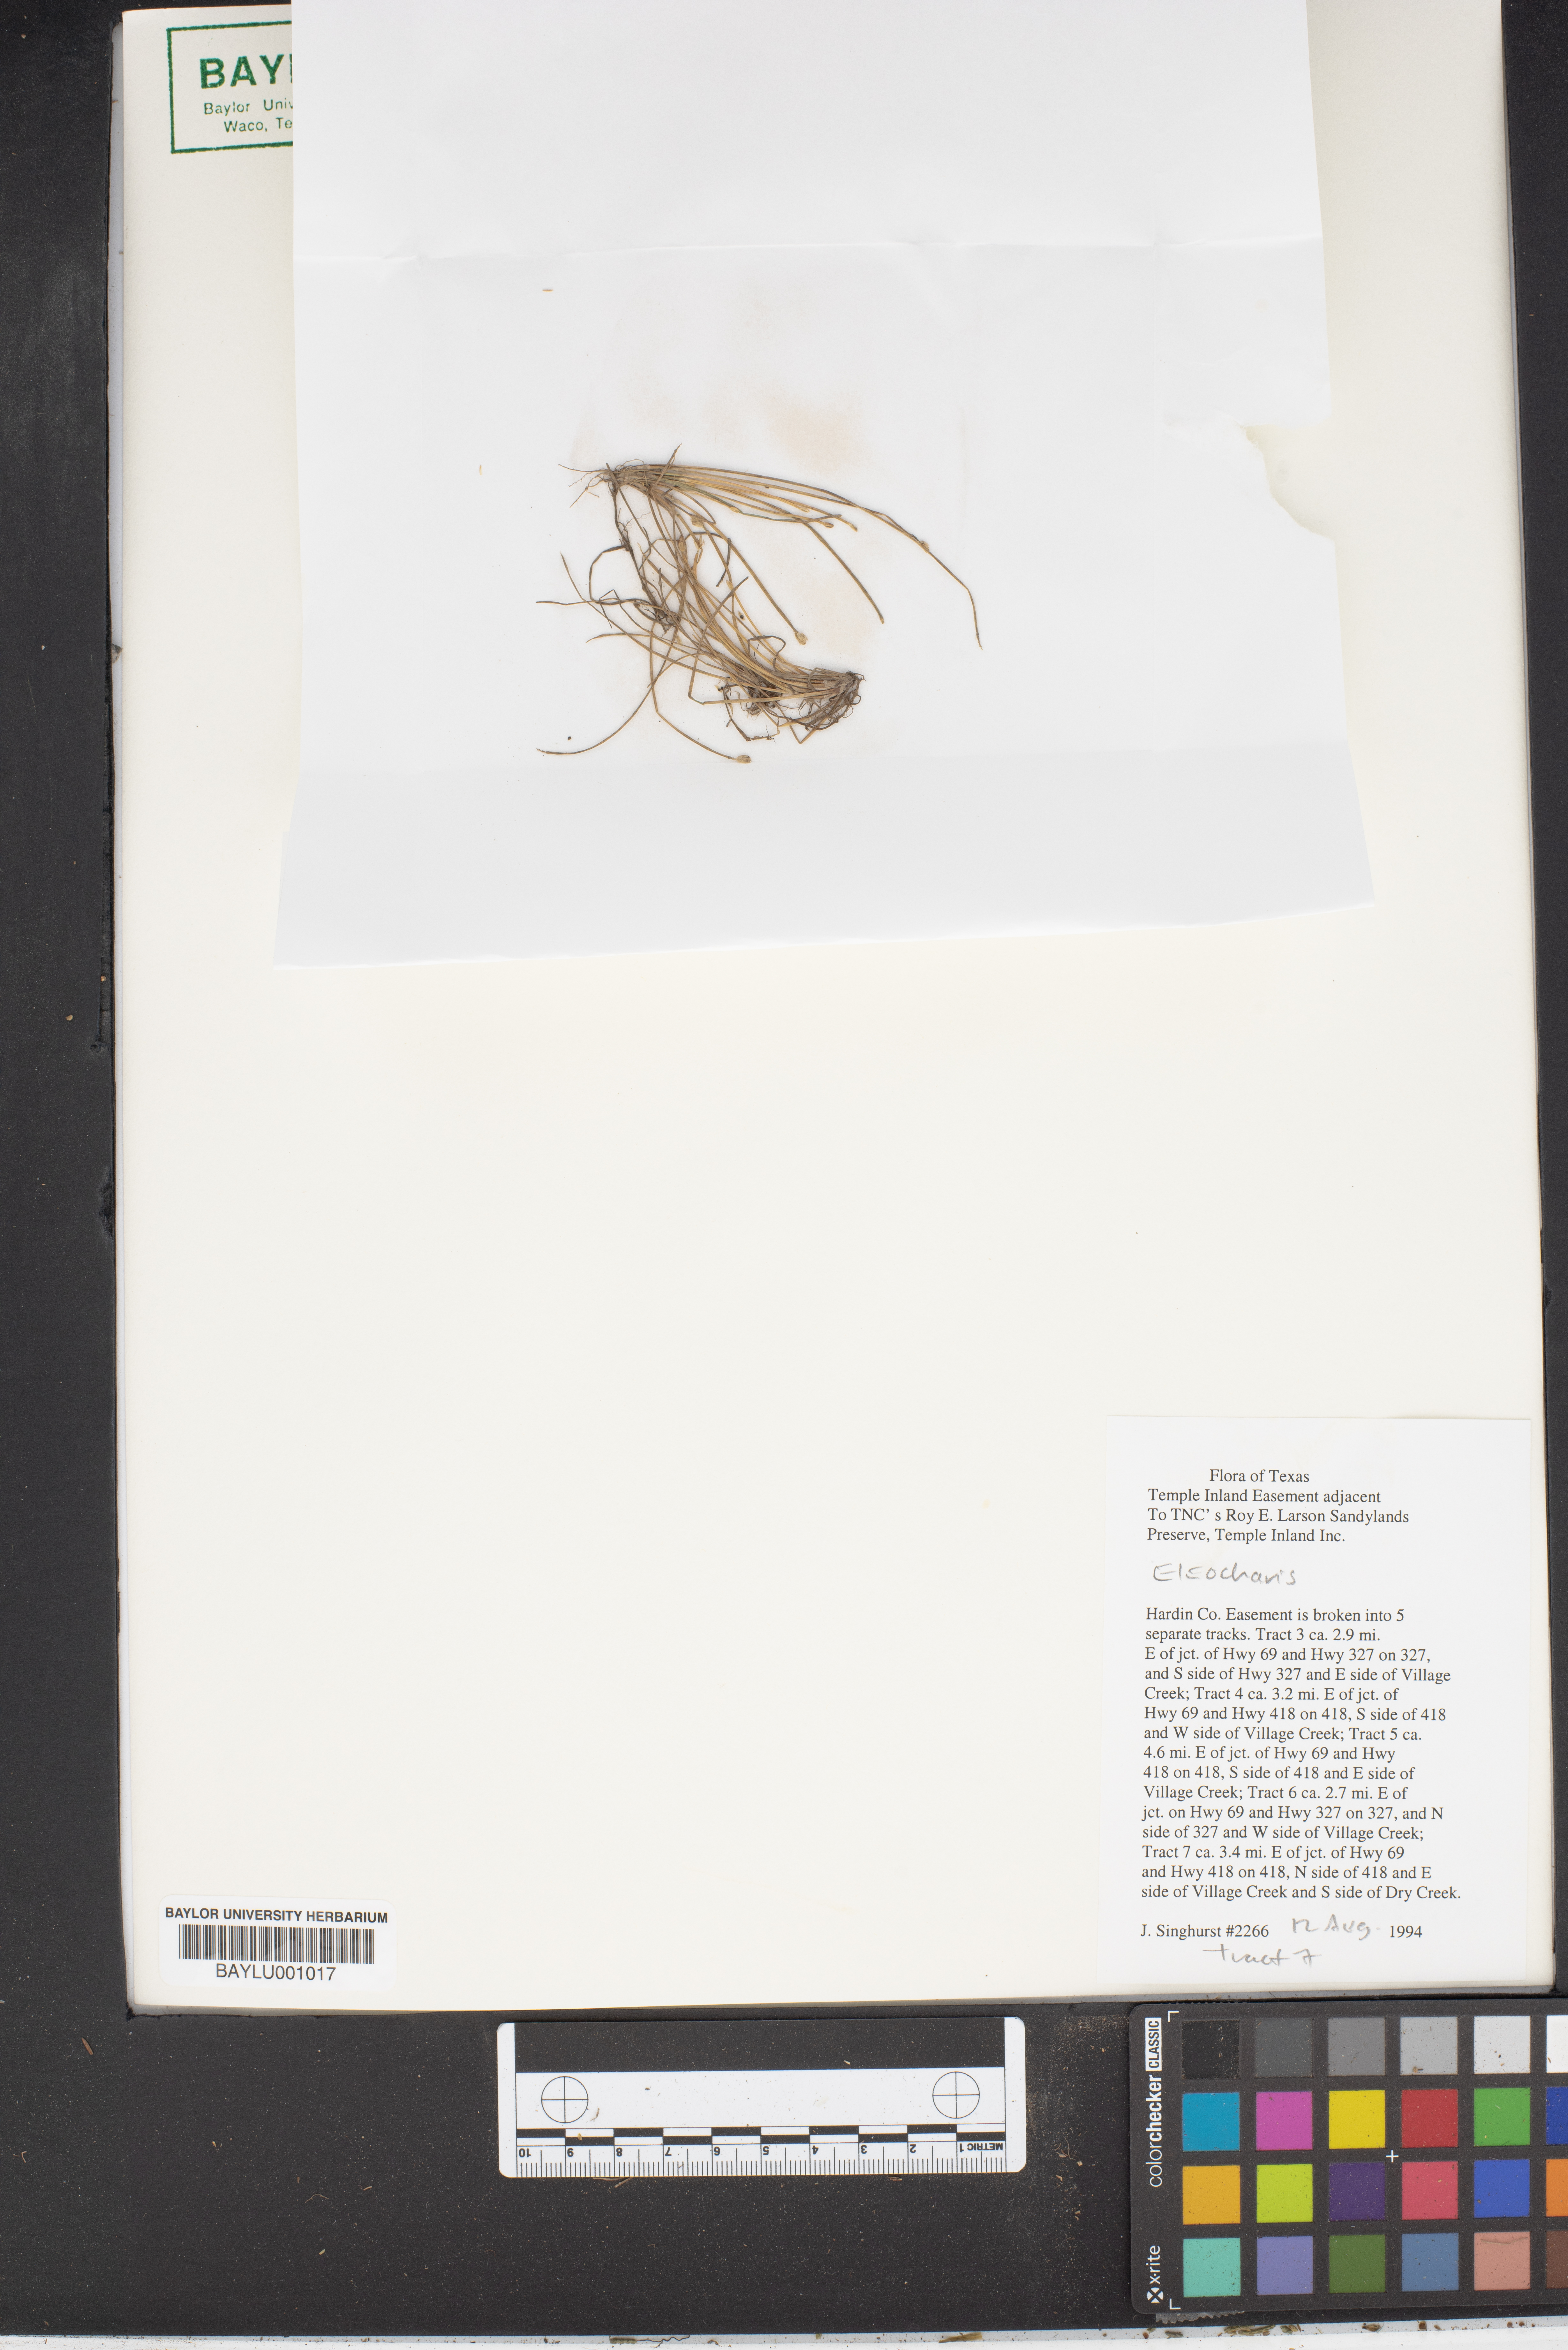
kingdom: Plantae
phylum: Tracheophyta
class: Liliopsida
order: Poales
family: Cyperaceae
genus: Eleocharis
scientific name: Eleocharis
